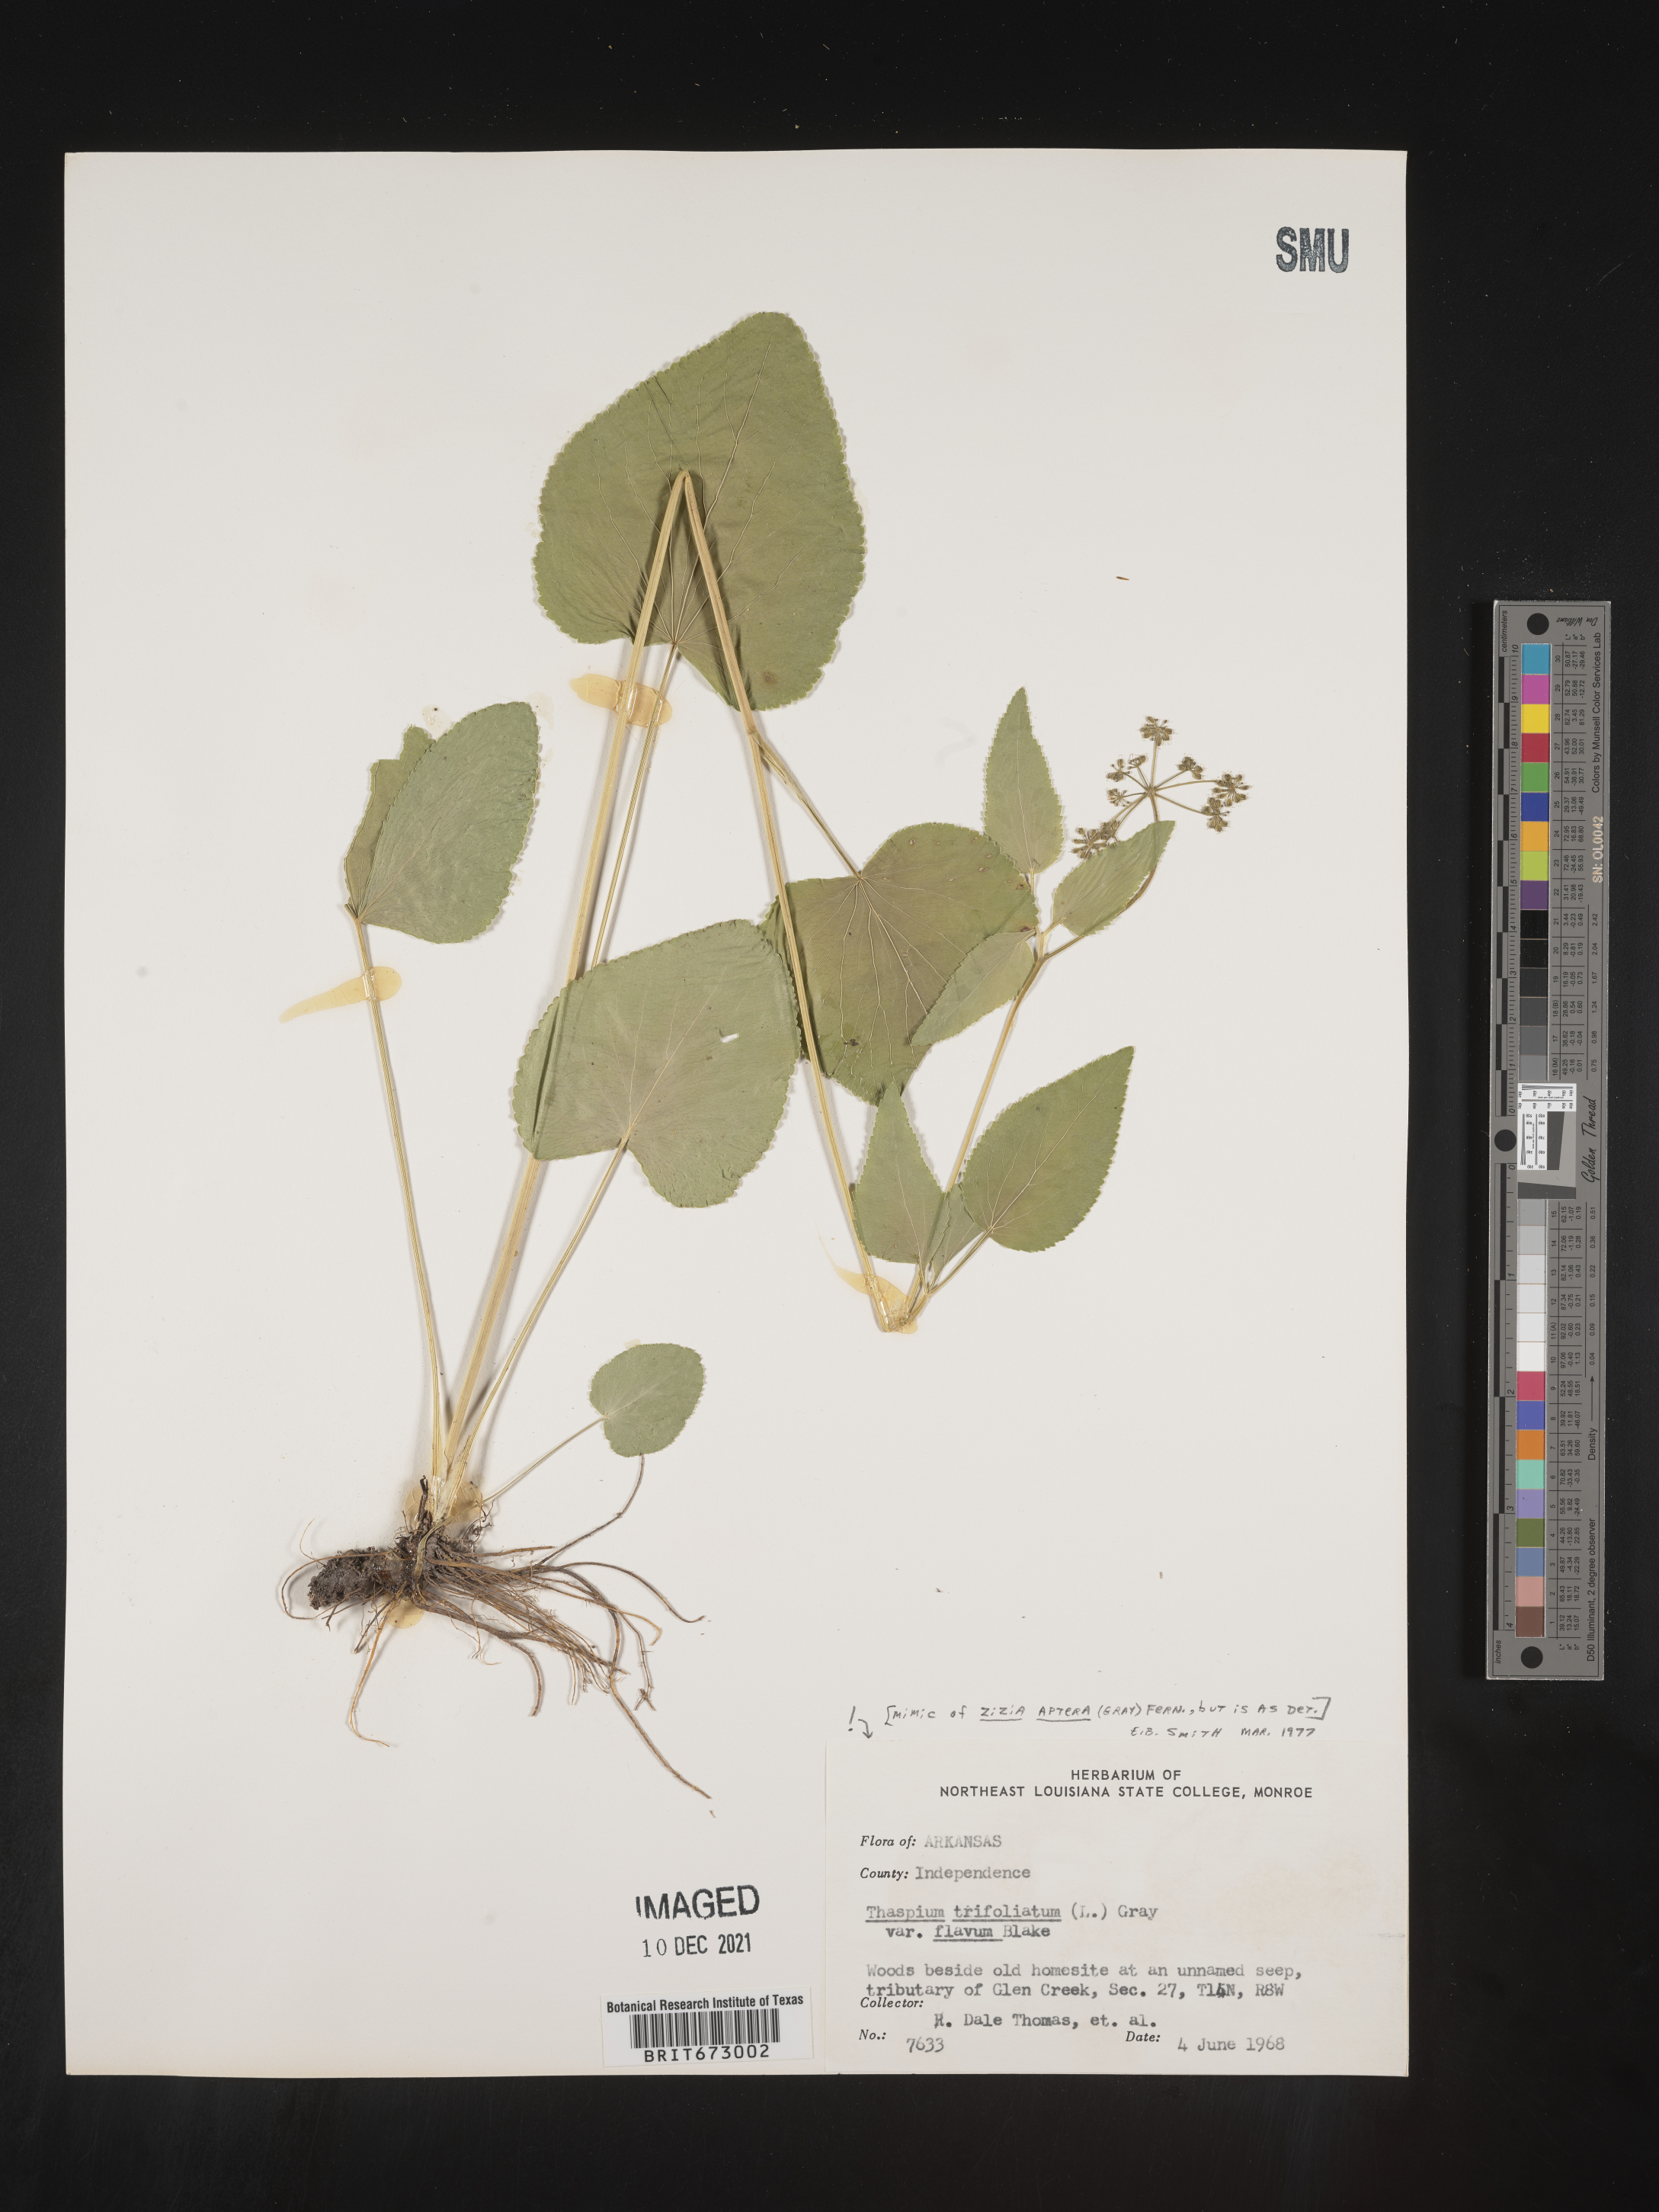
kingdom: Plantae
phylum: Tracheophyta
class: Magnoliopsida
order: Apiales
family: Apiaceae
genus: Thaspium
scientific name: Thaspium
